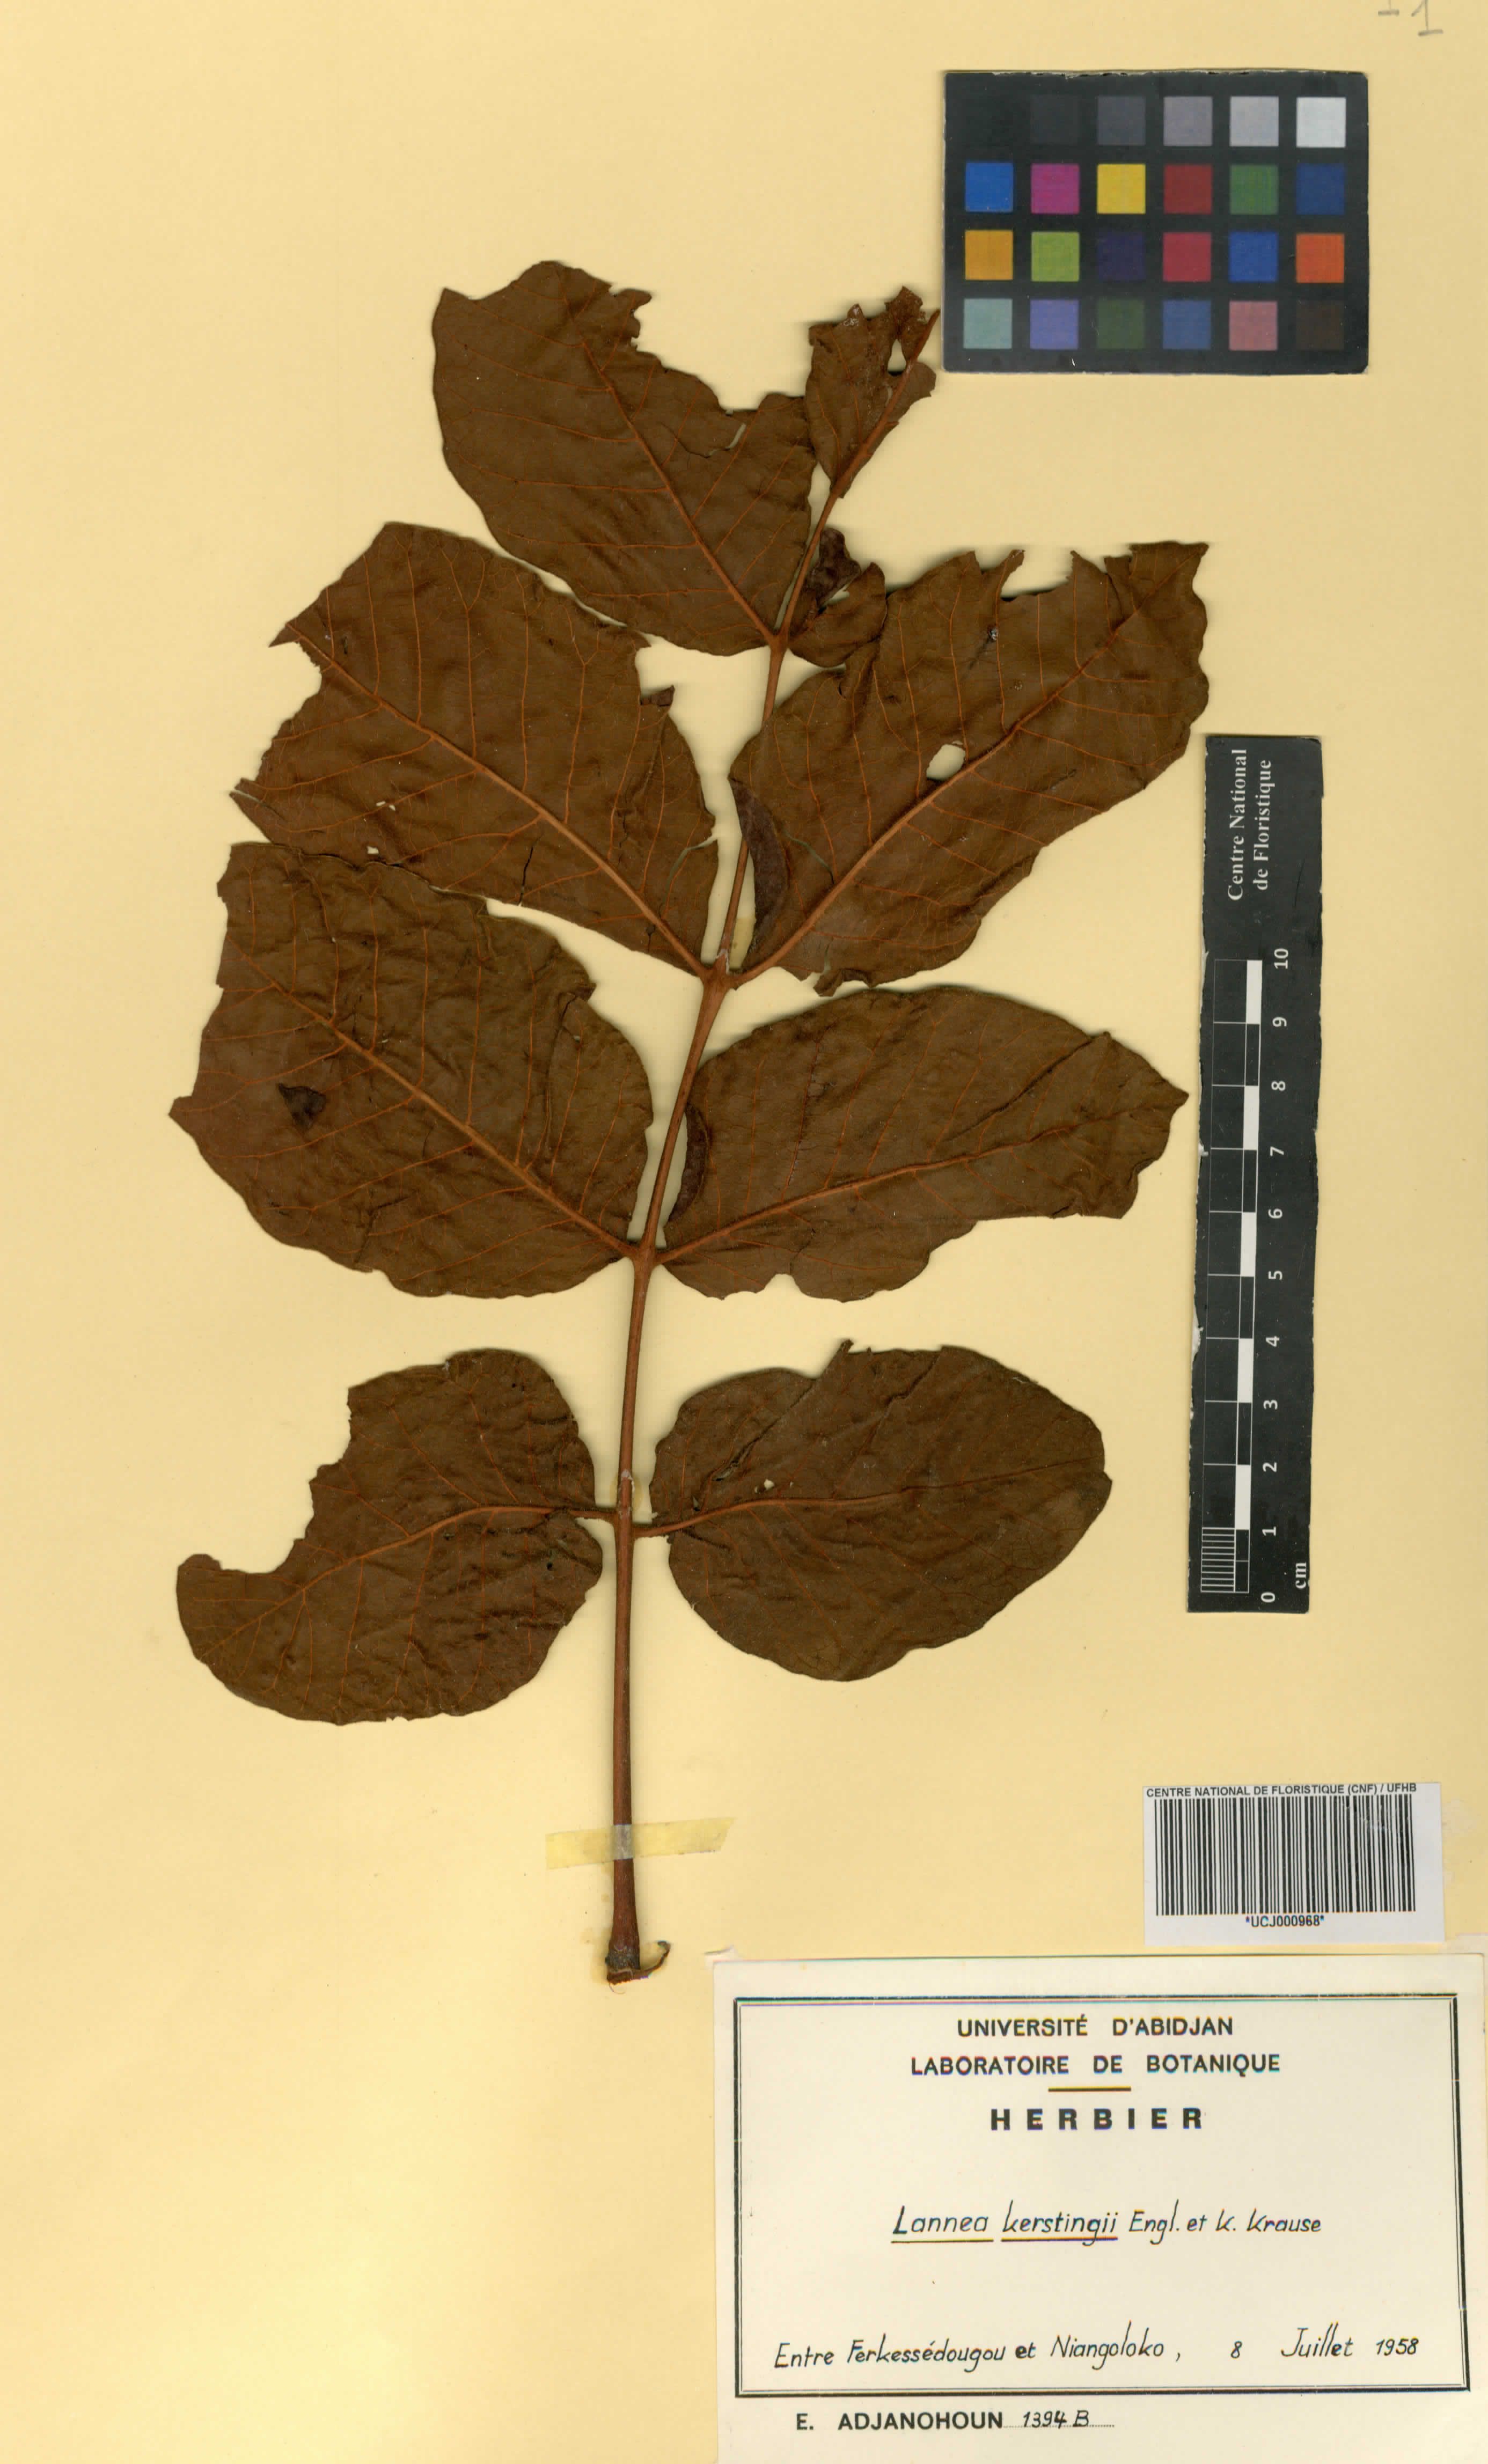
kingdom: Plantae
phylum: Tracheophyta
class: Magnoliopsida
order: Sapindales
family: Anacardiaceae
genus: Lannea
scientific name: Lannea barteri
